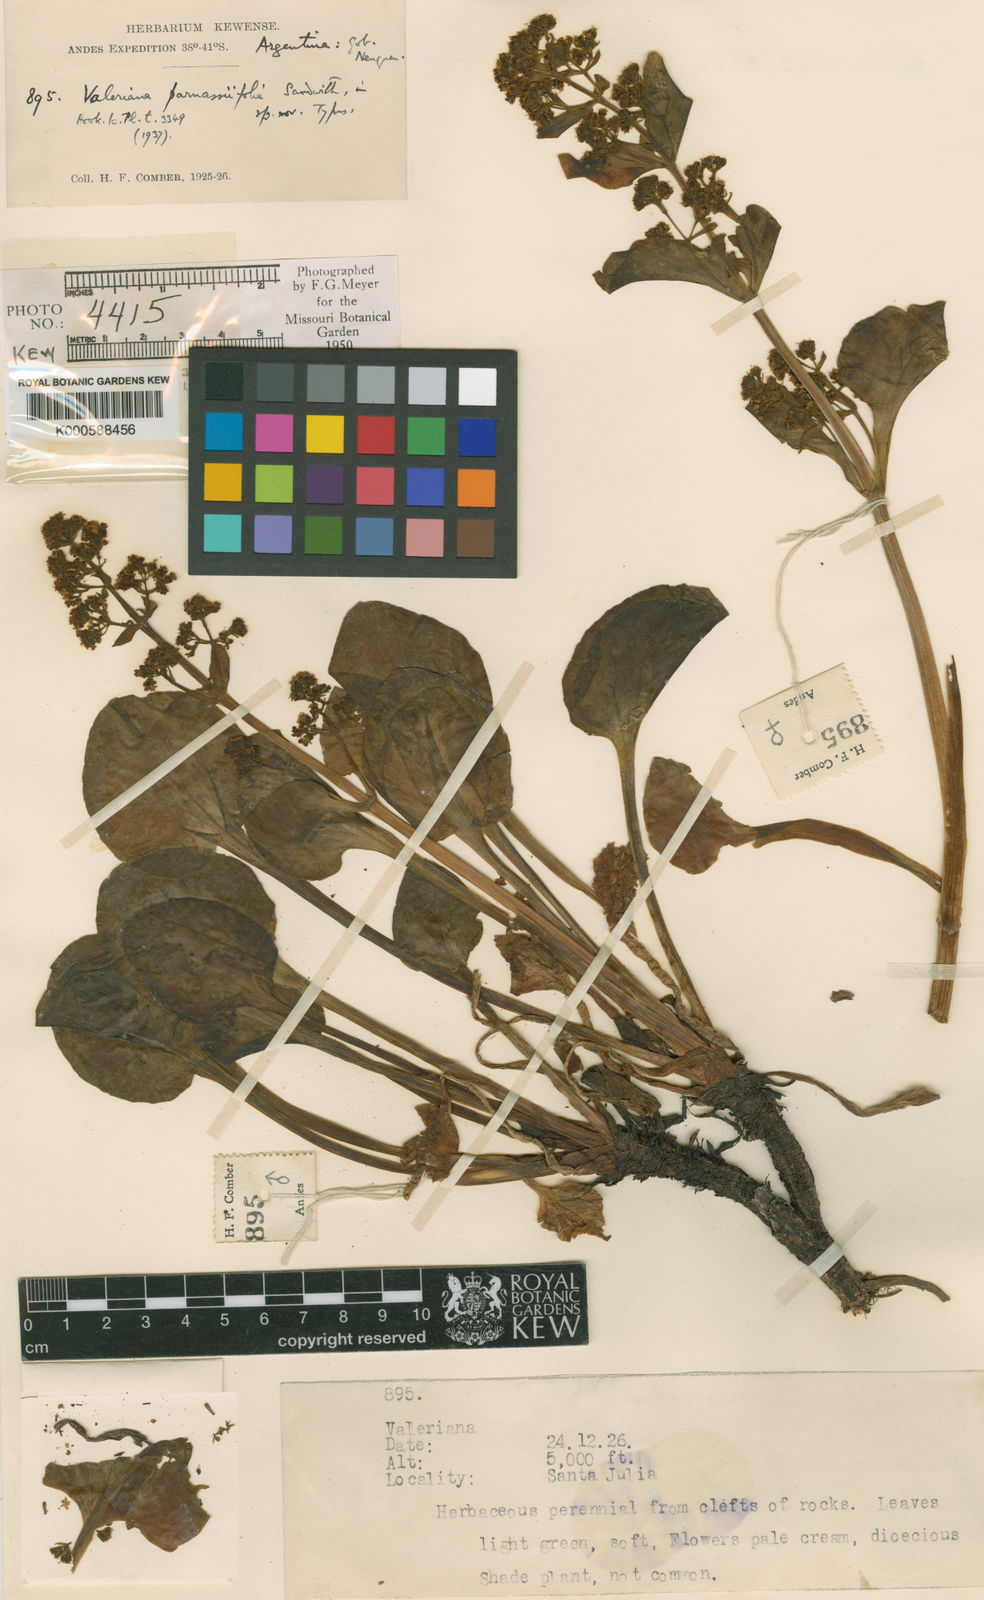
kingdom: Plantae
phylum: Tracheophyta
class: Magnoliopsida
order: Dipsacales
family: Caprifoliaceae
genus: Valeriana
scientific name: Valeriana lapathifolia
